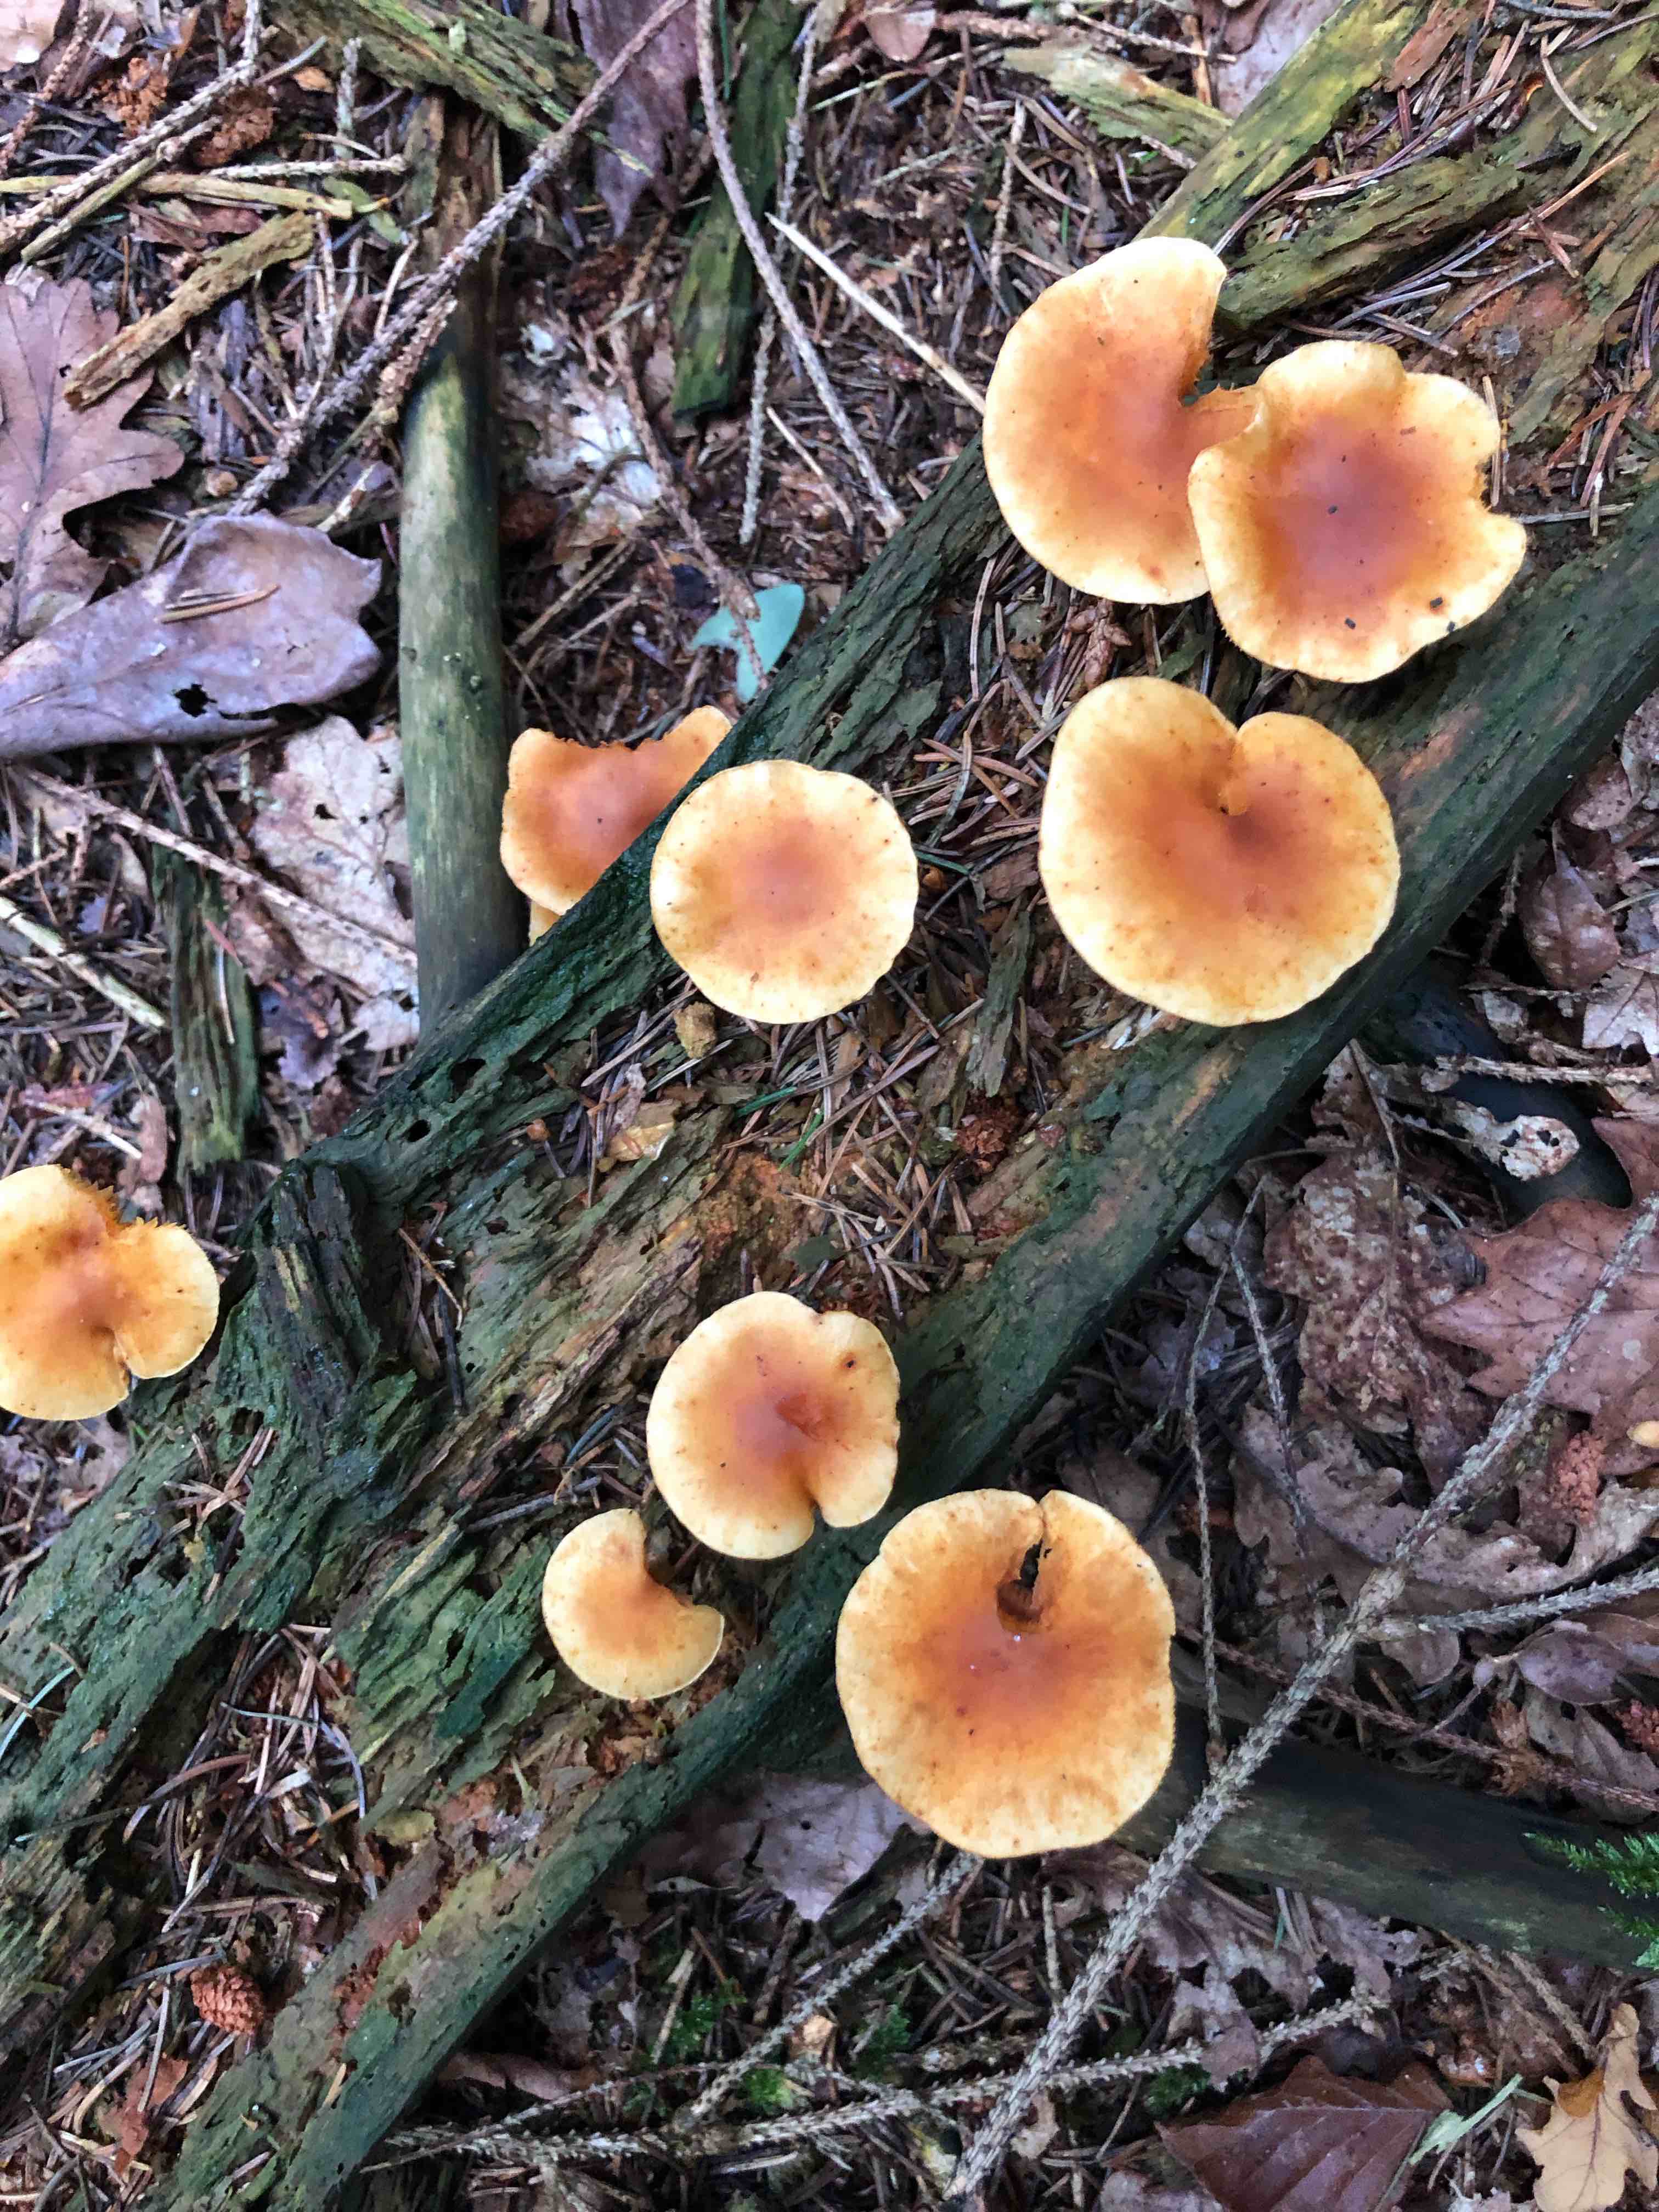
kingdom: Fungi
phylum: Basidiomycota
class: Agaricomycetes
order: Agaricales
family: Hymenogastraceae
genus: Gymnopilus
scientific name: Gymnopilus penetrans
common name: plettet flammehat
